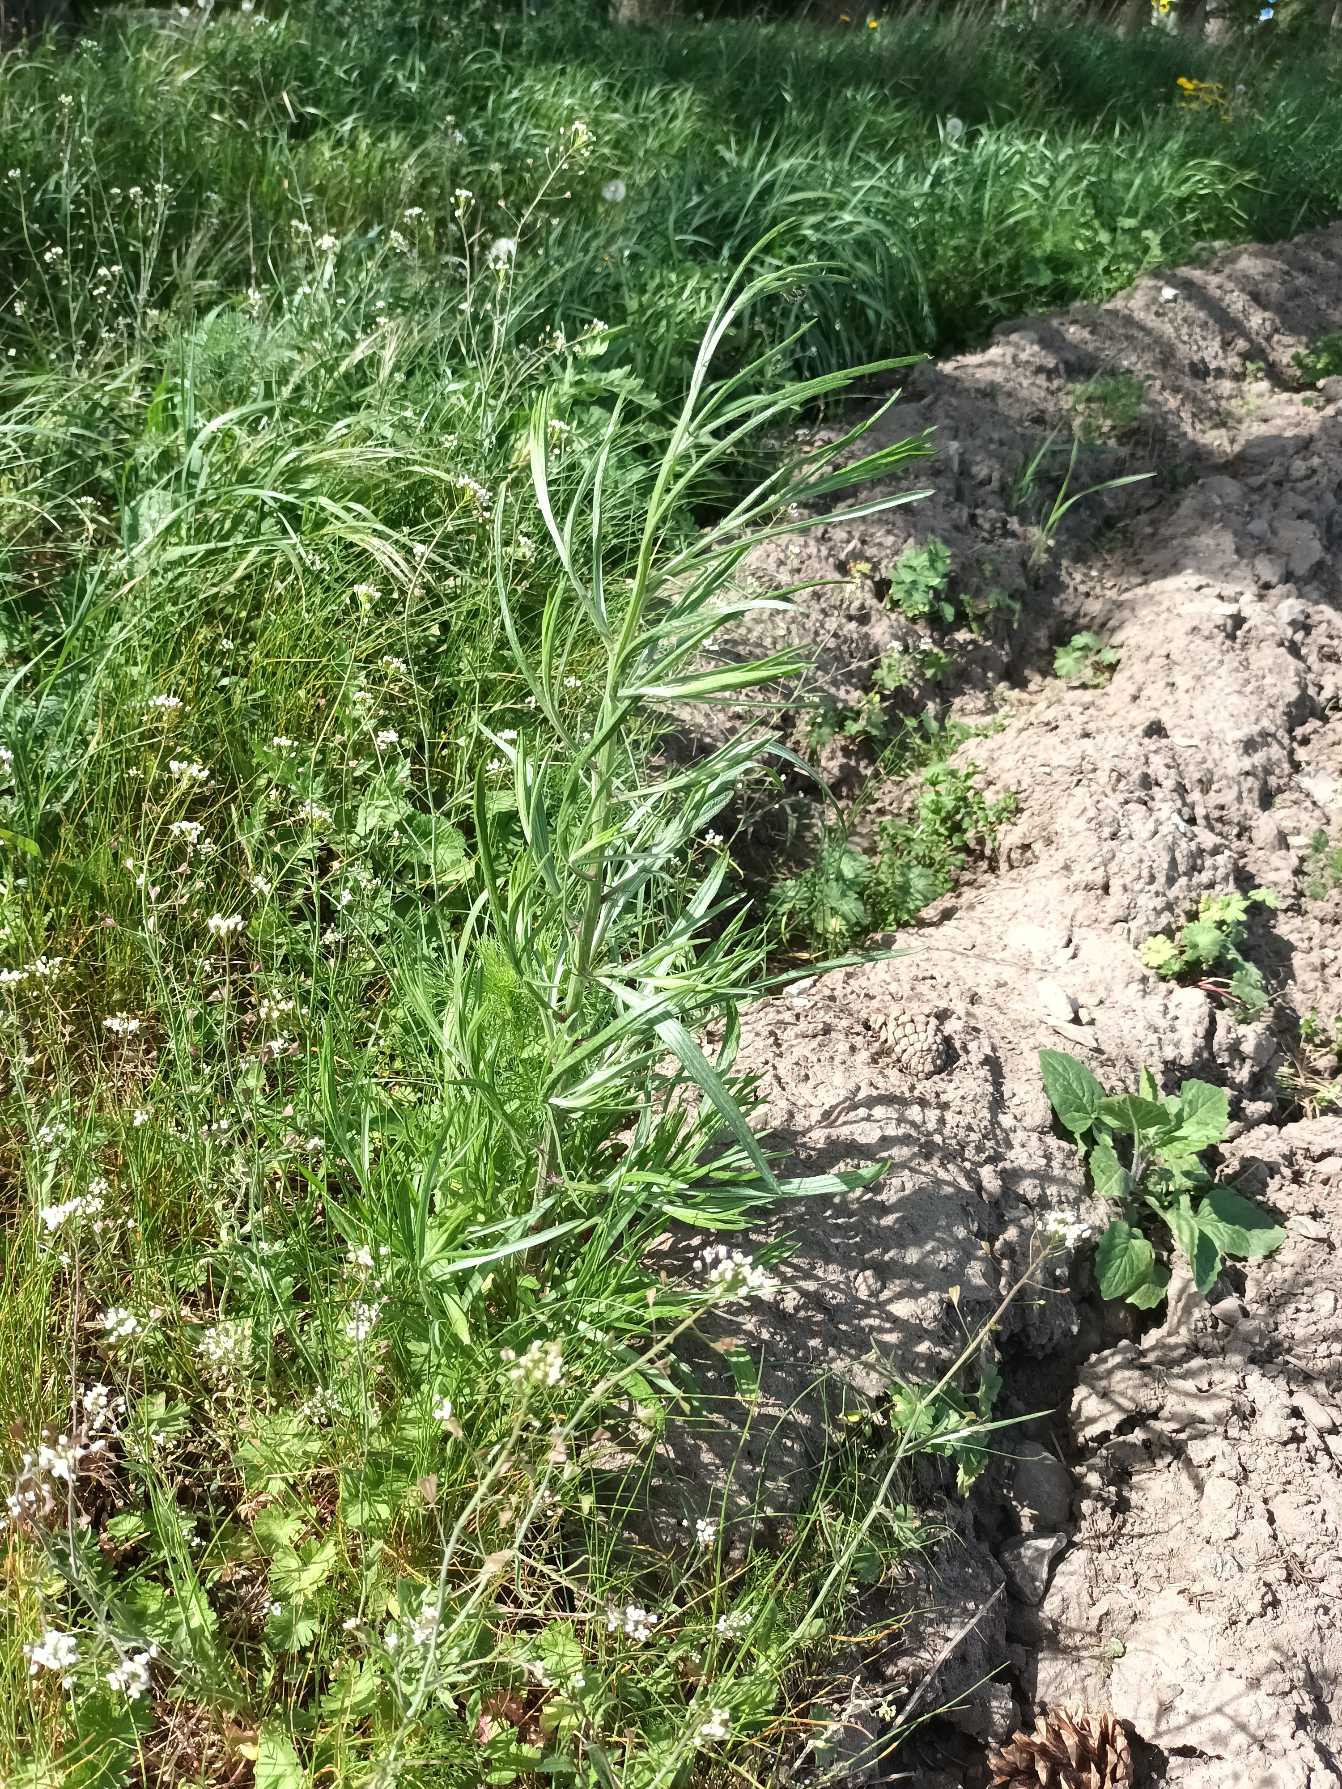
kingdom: Plantae
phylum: Tracheophyta
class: Magnoliopsida
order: Asterales
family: Asteraceae
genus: Centaurea
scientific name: Centaurea cyanus
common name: Kornblomst
